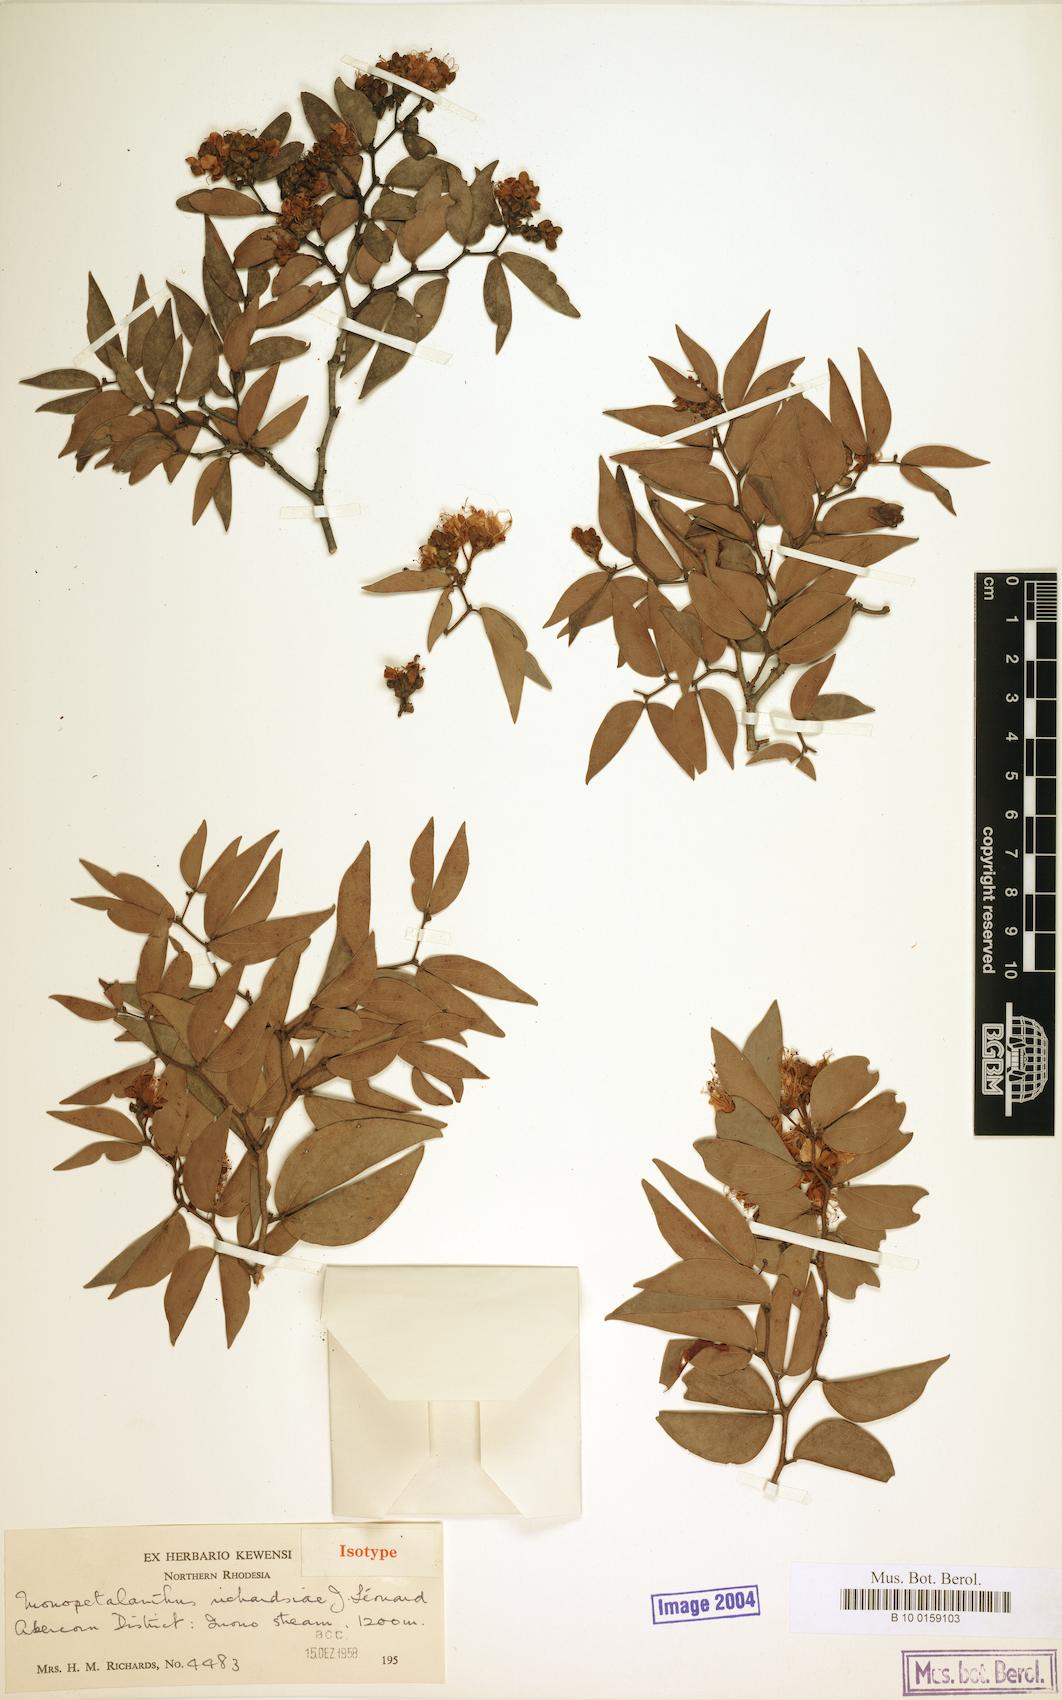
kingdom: Plantae
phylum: Tracheophyta
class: Magnoliopsida
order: Fabales
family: Fabaceae
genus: Aphanocalyx
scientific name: Aphanocalyx richardsiae
